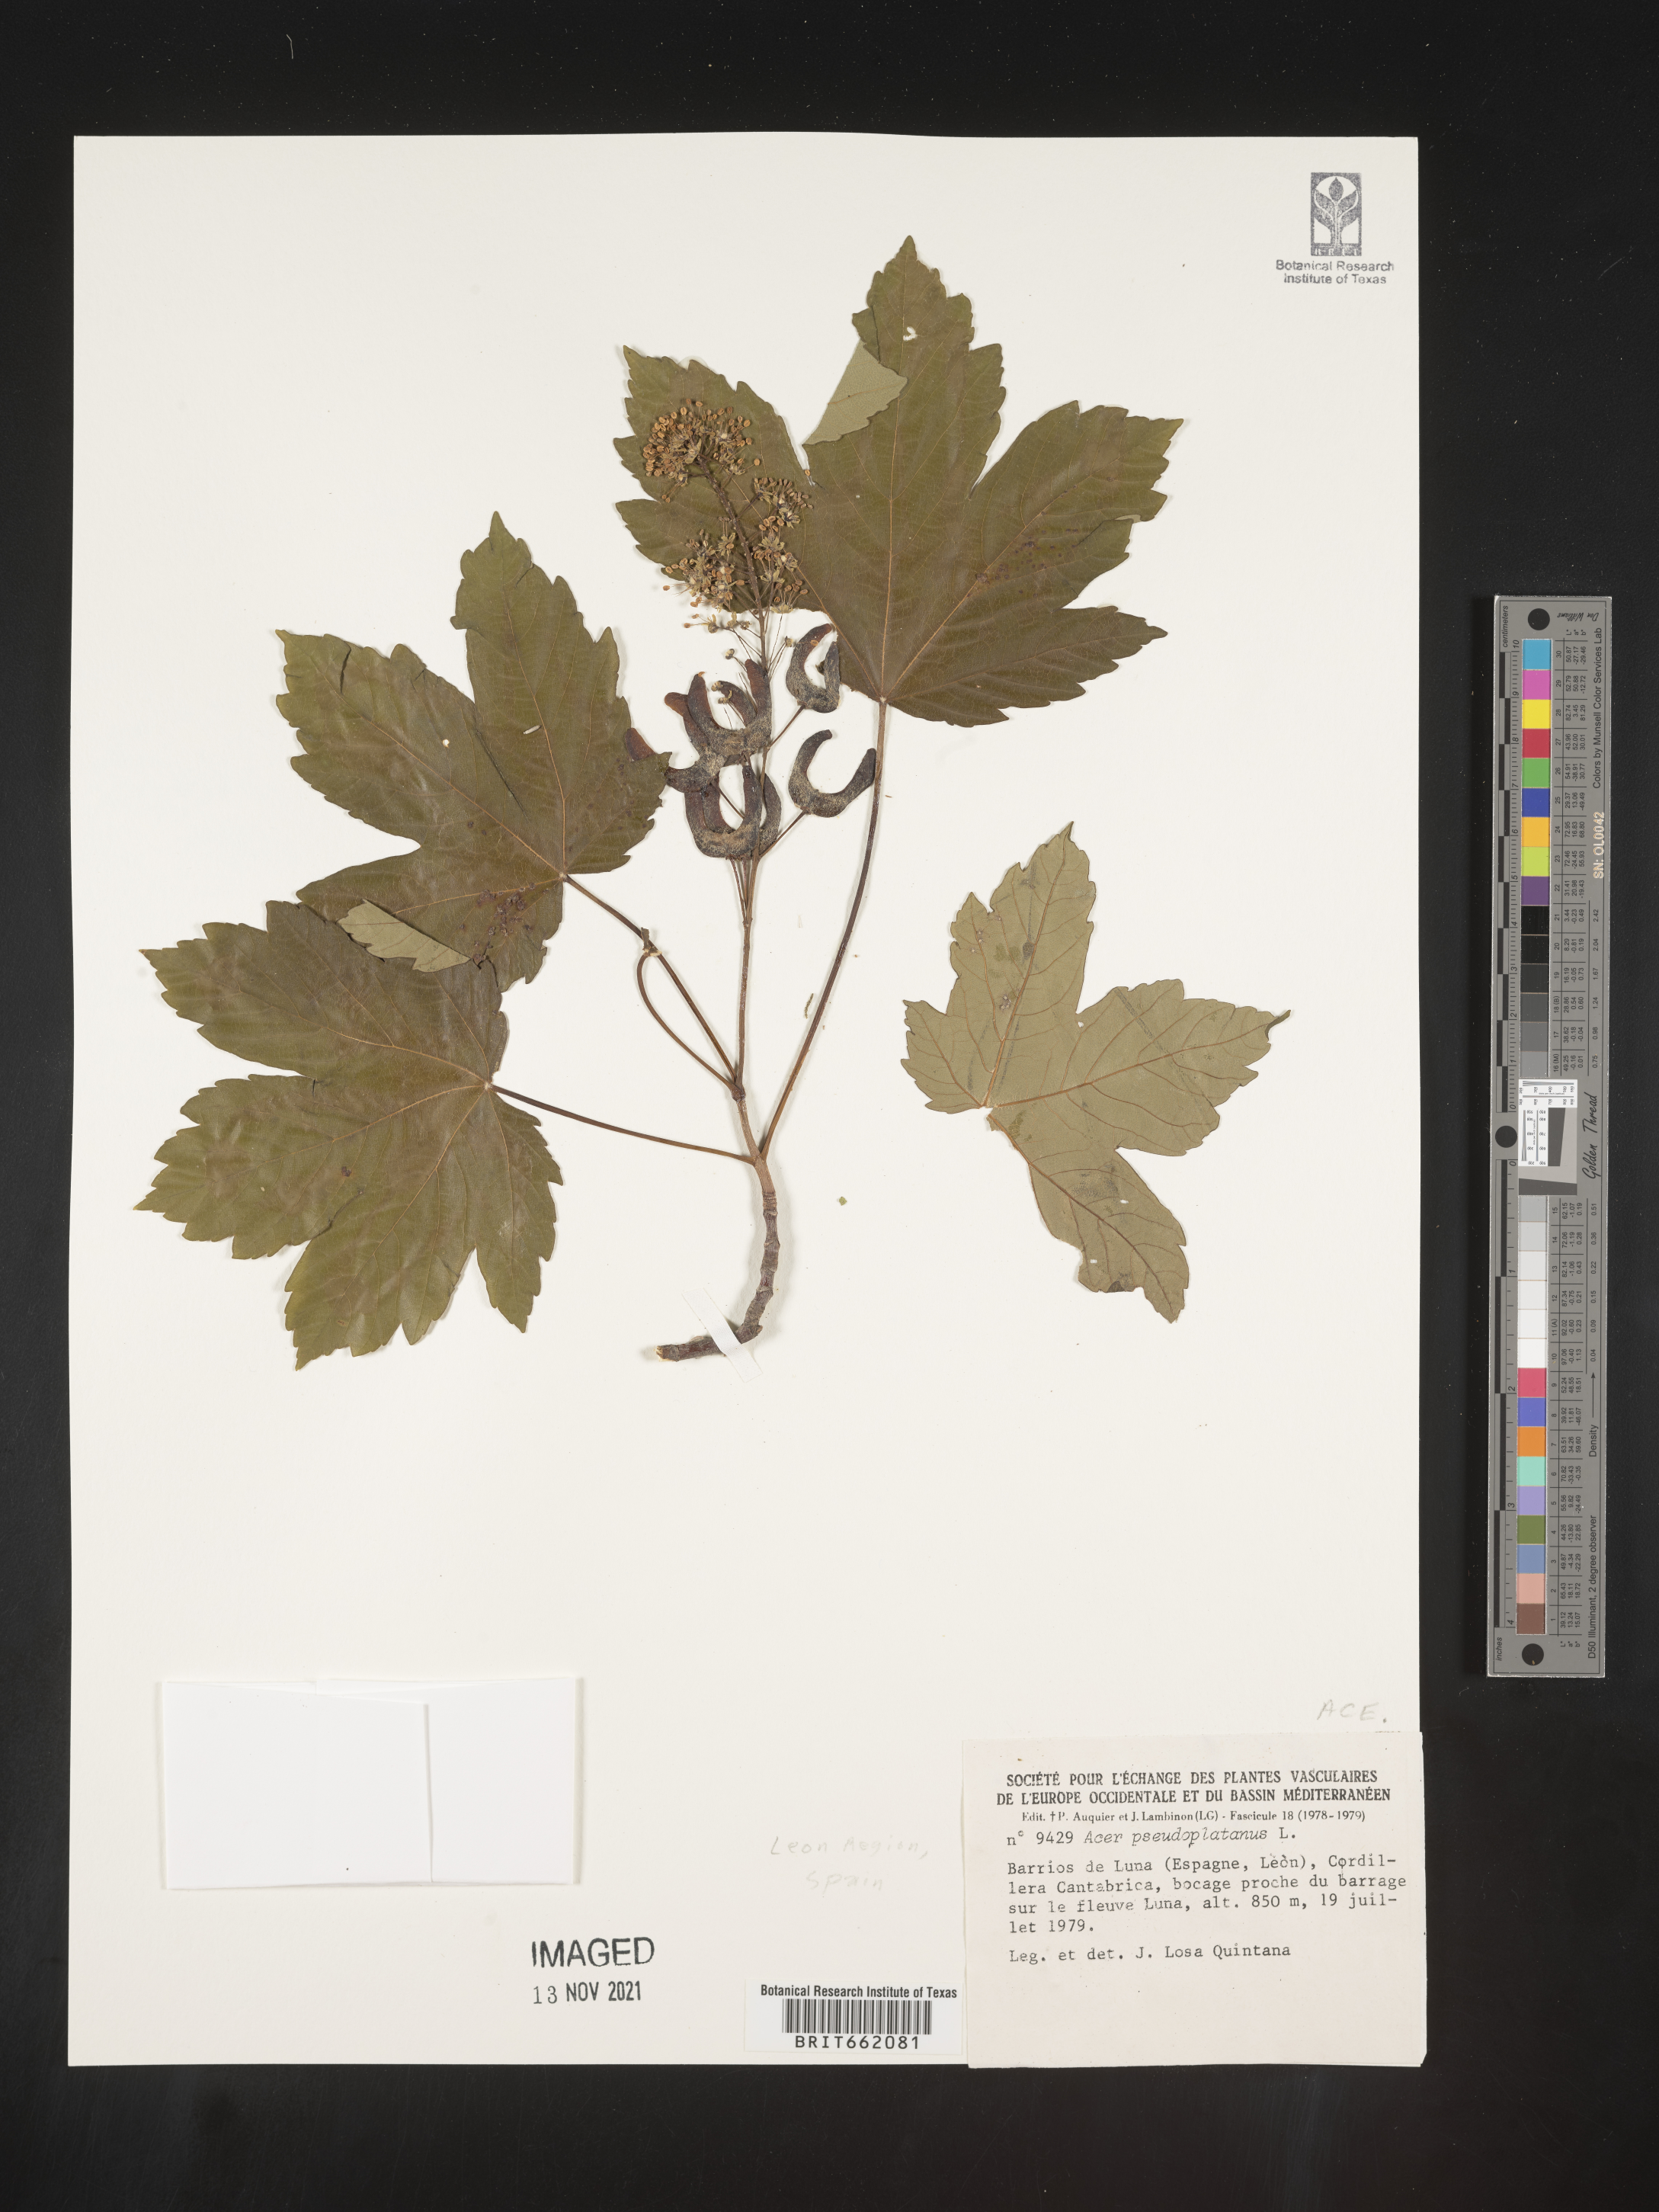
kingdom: Plantae
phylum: Tracheophyta
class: Magnoliopsida
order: Sapindales
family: Sapindaceae
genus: Acer
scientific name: Acer
